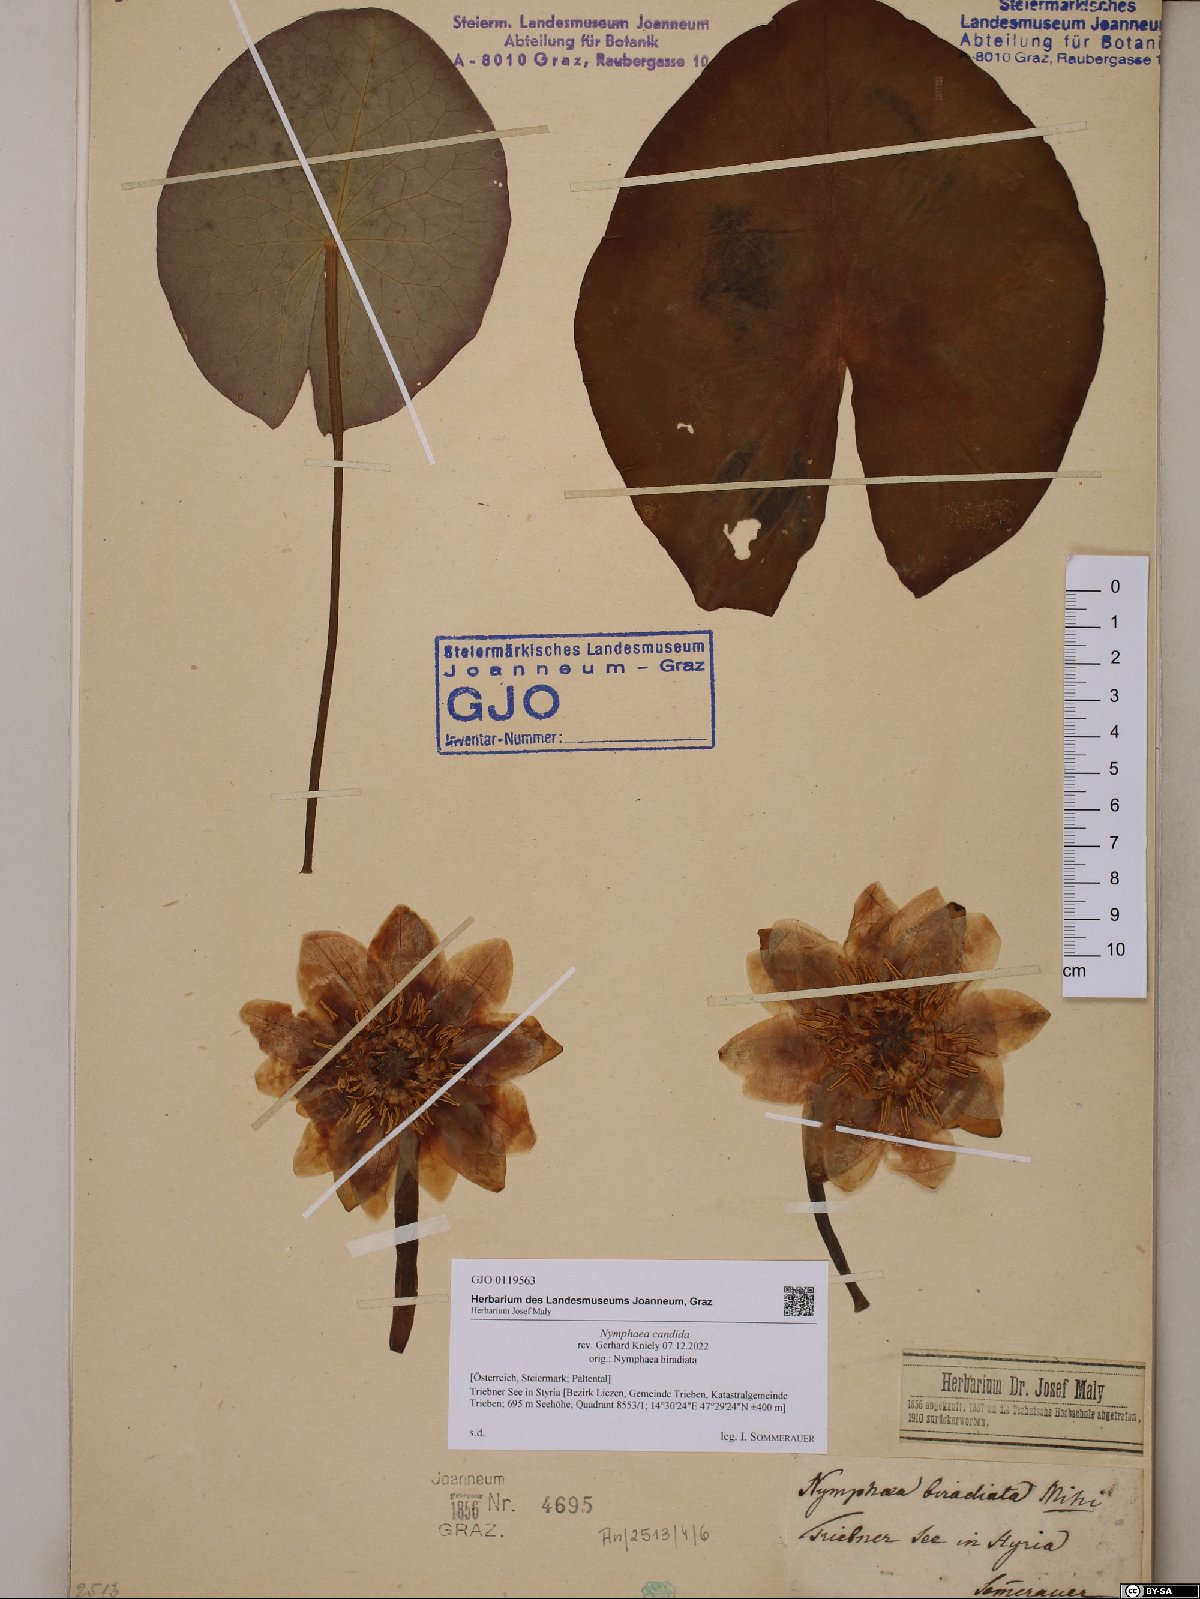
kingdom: Plantae
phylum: Tracheophyta
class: Magnoliopsida
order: Nymphaeales
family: Nymphaeaceae
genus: Nymphaea
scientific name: Nymphaea candida
